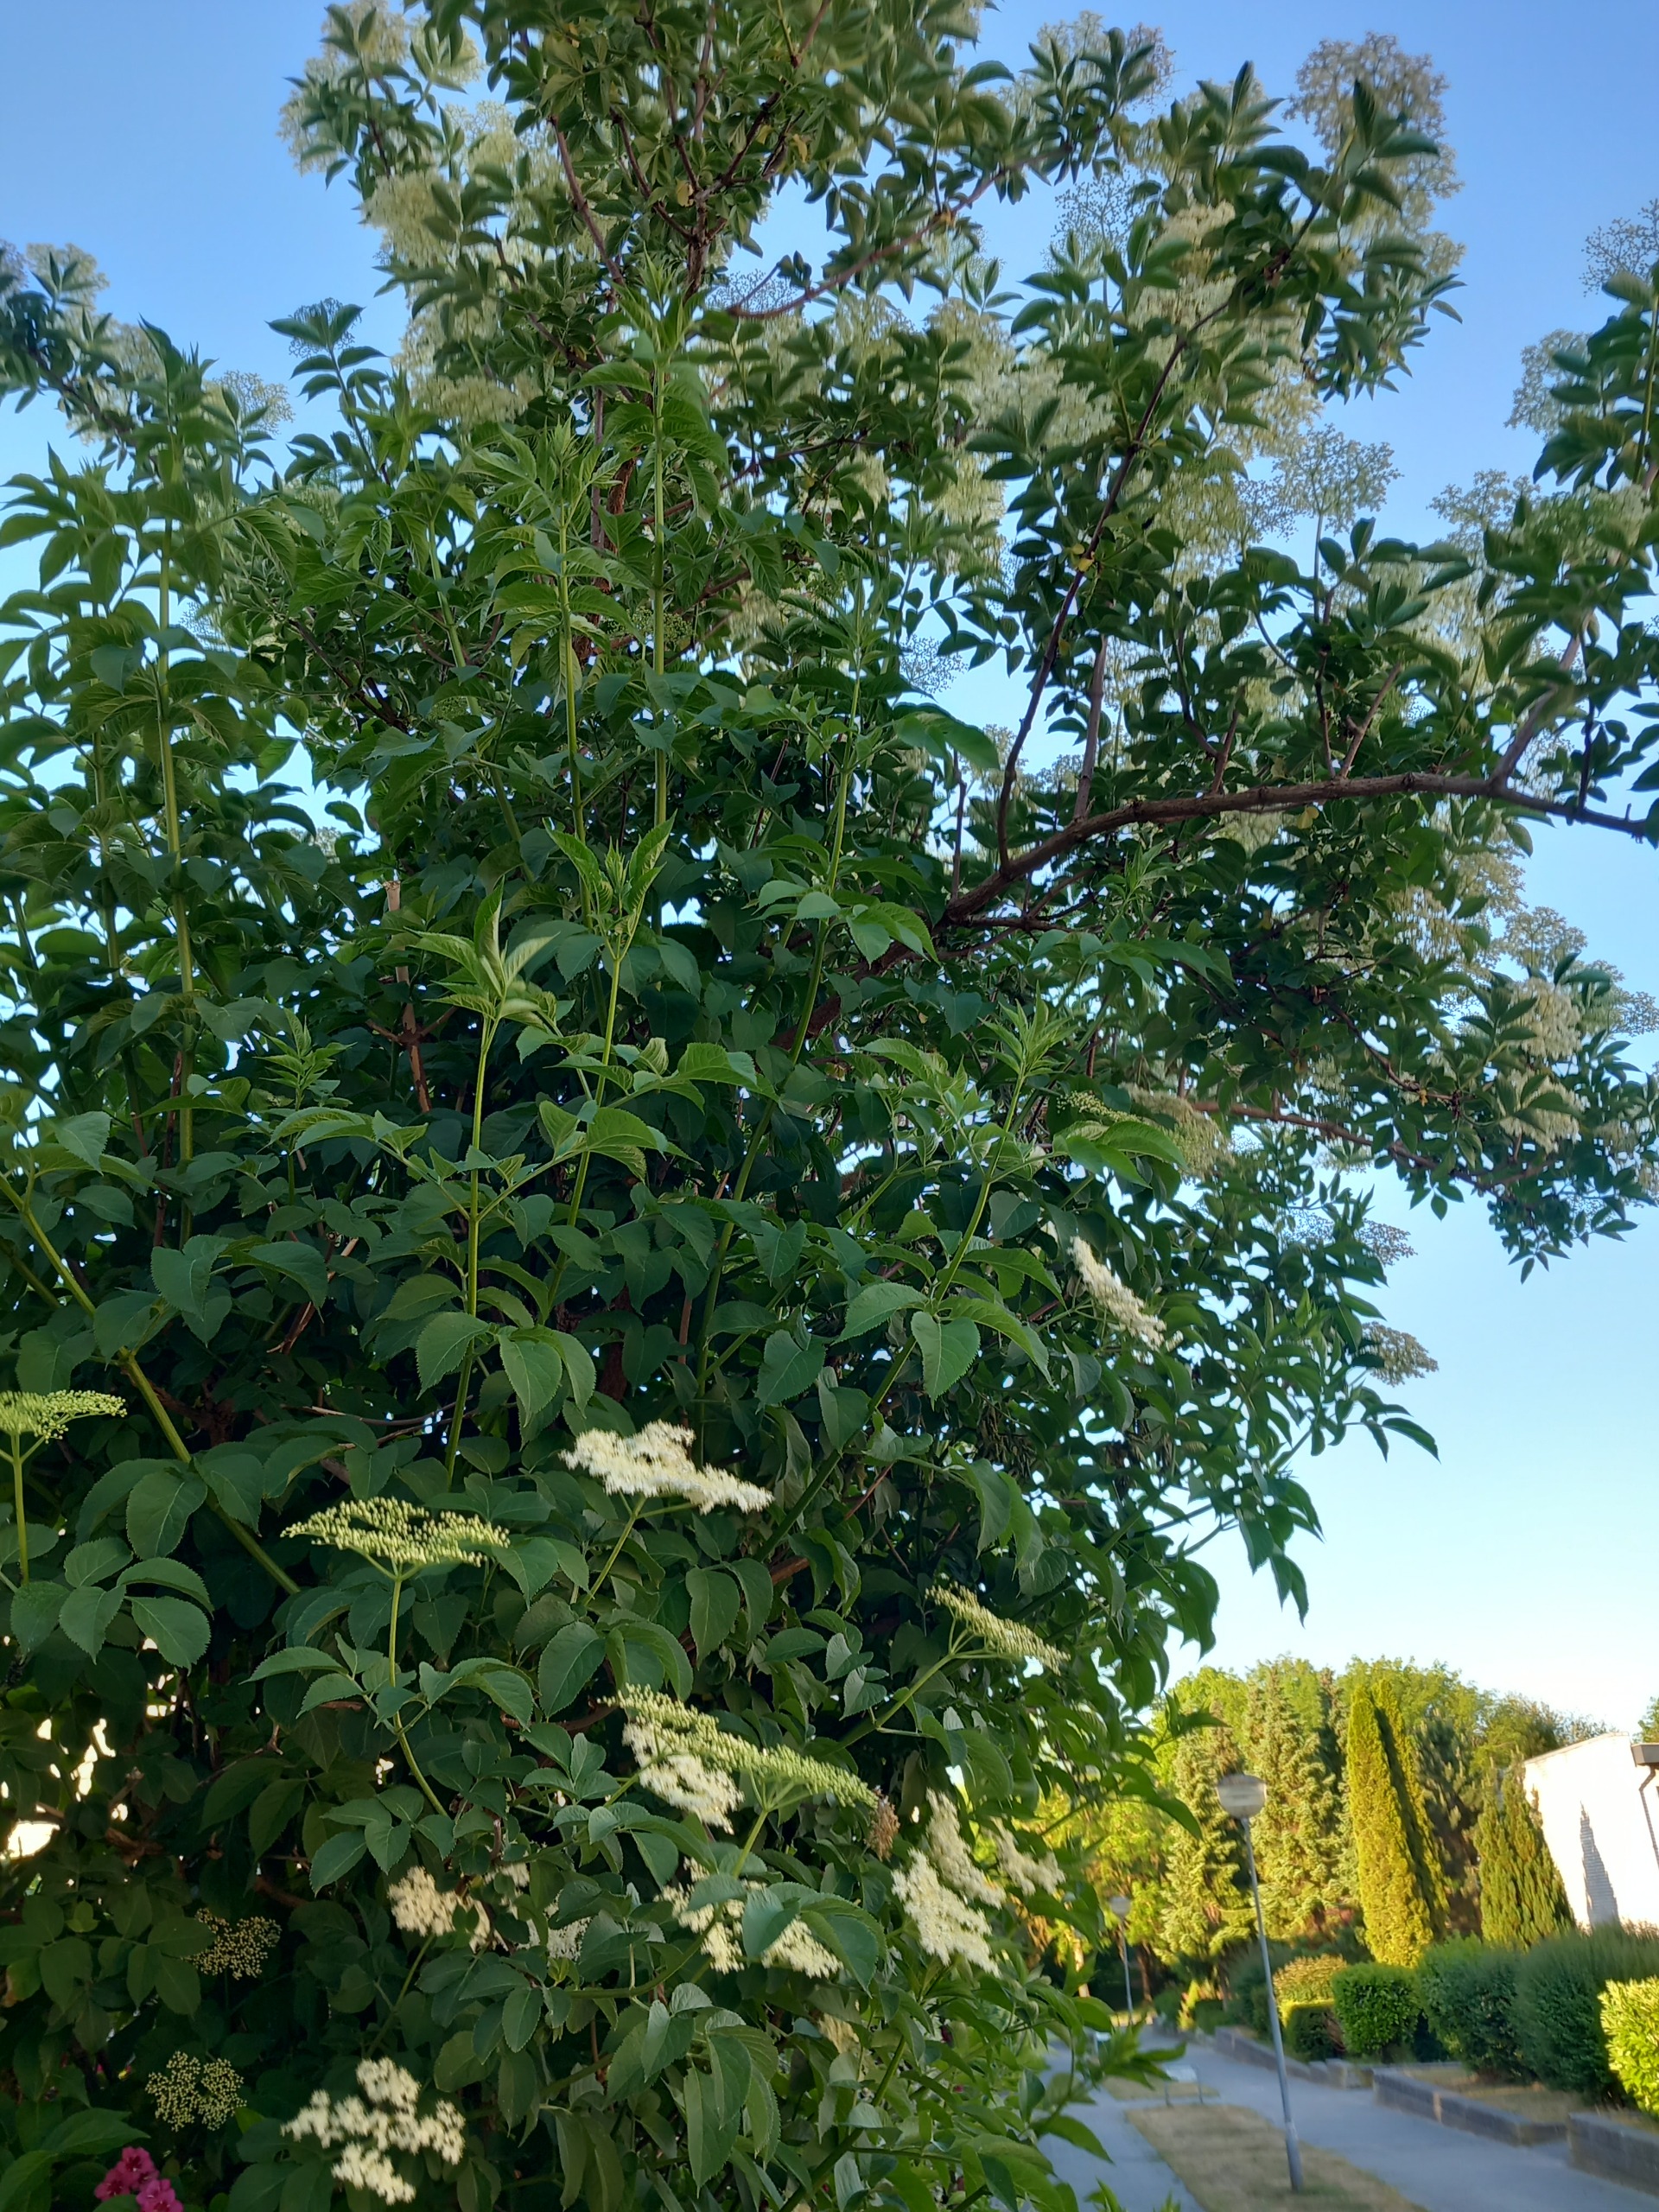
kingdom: Plantae
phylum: Tracheophyta
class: Magnoliopsida
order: Dipsacales
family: Viburnaceae
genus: Sambucus
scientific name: Sambucus nigra
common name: Almindelig hyld
